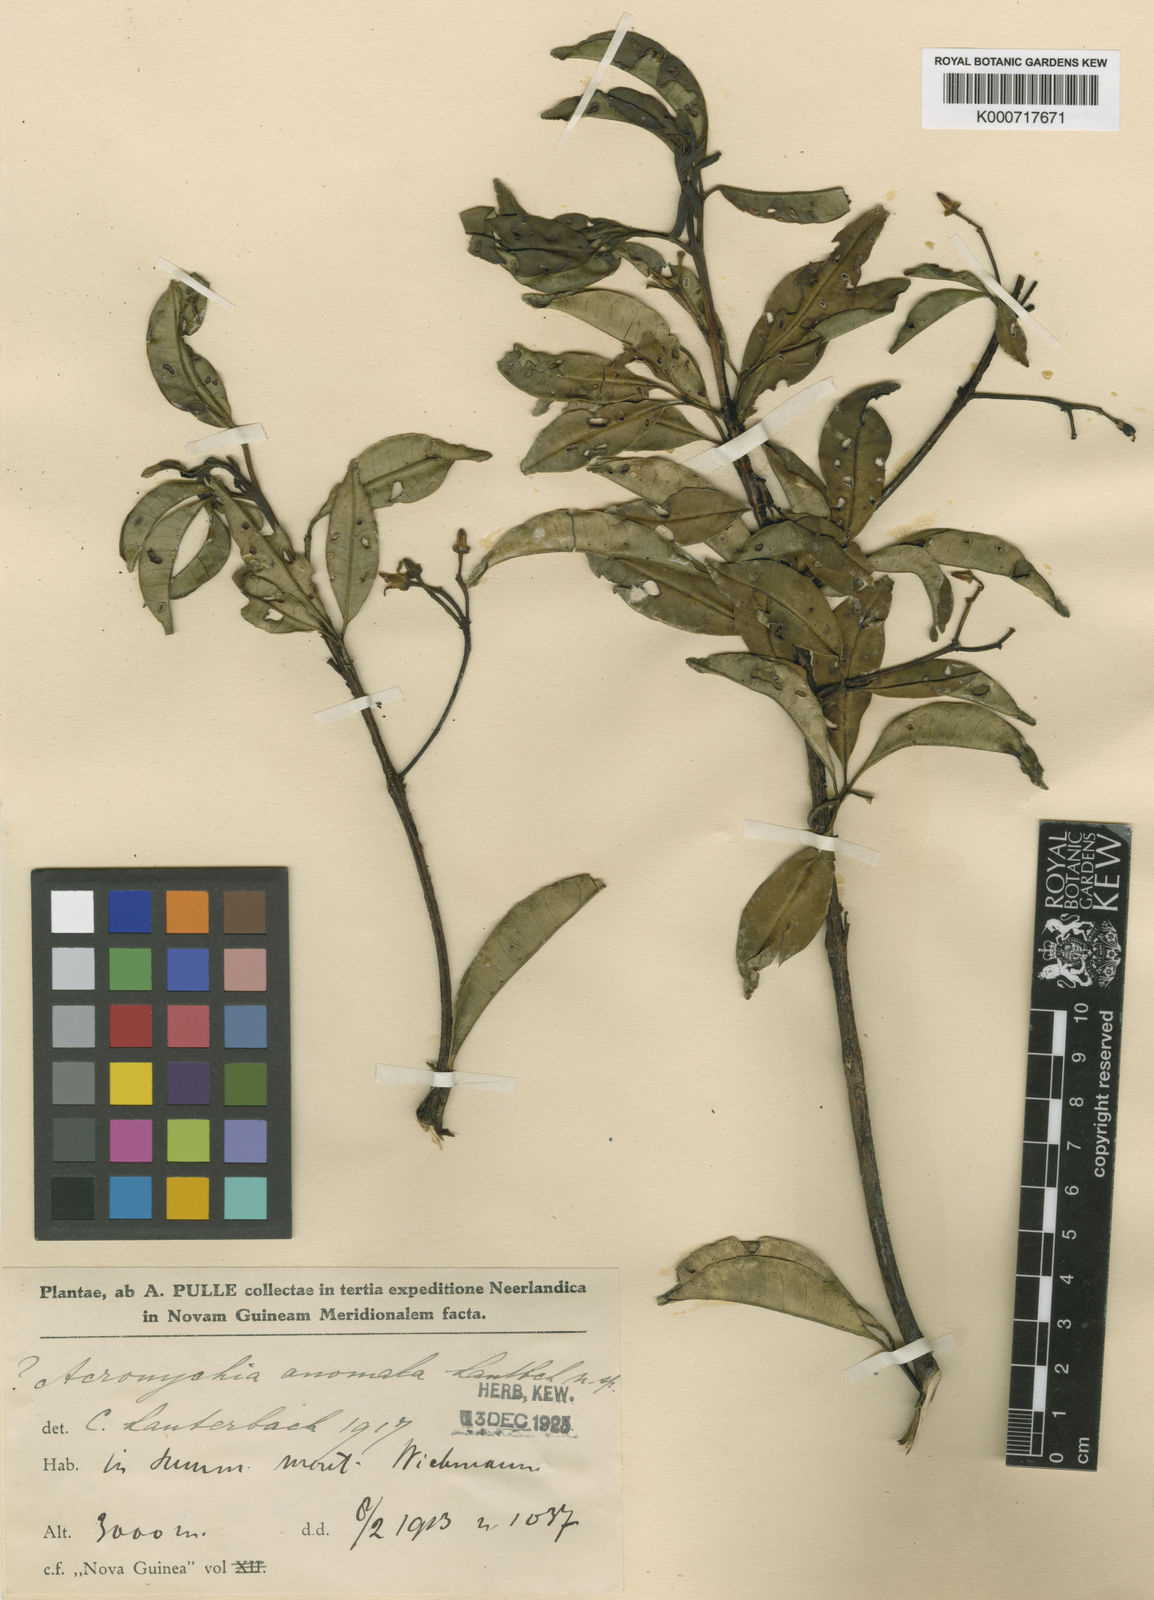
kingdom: Plantae
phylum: Tracheophyta
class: Magnoliopsida
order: Sapindales
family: Rutaceae
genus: Melicope
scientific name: Melicope anomala
